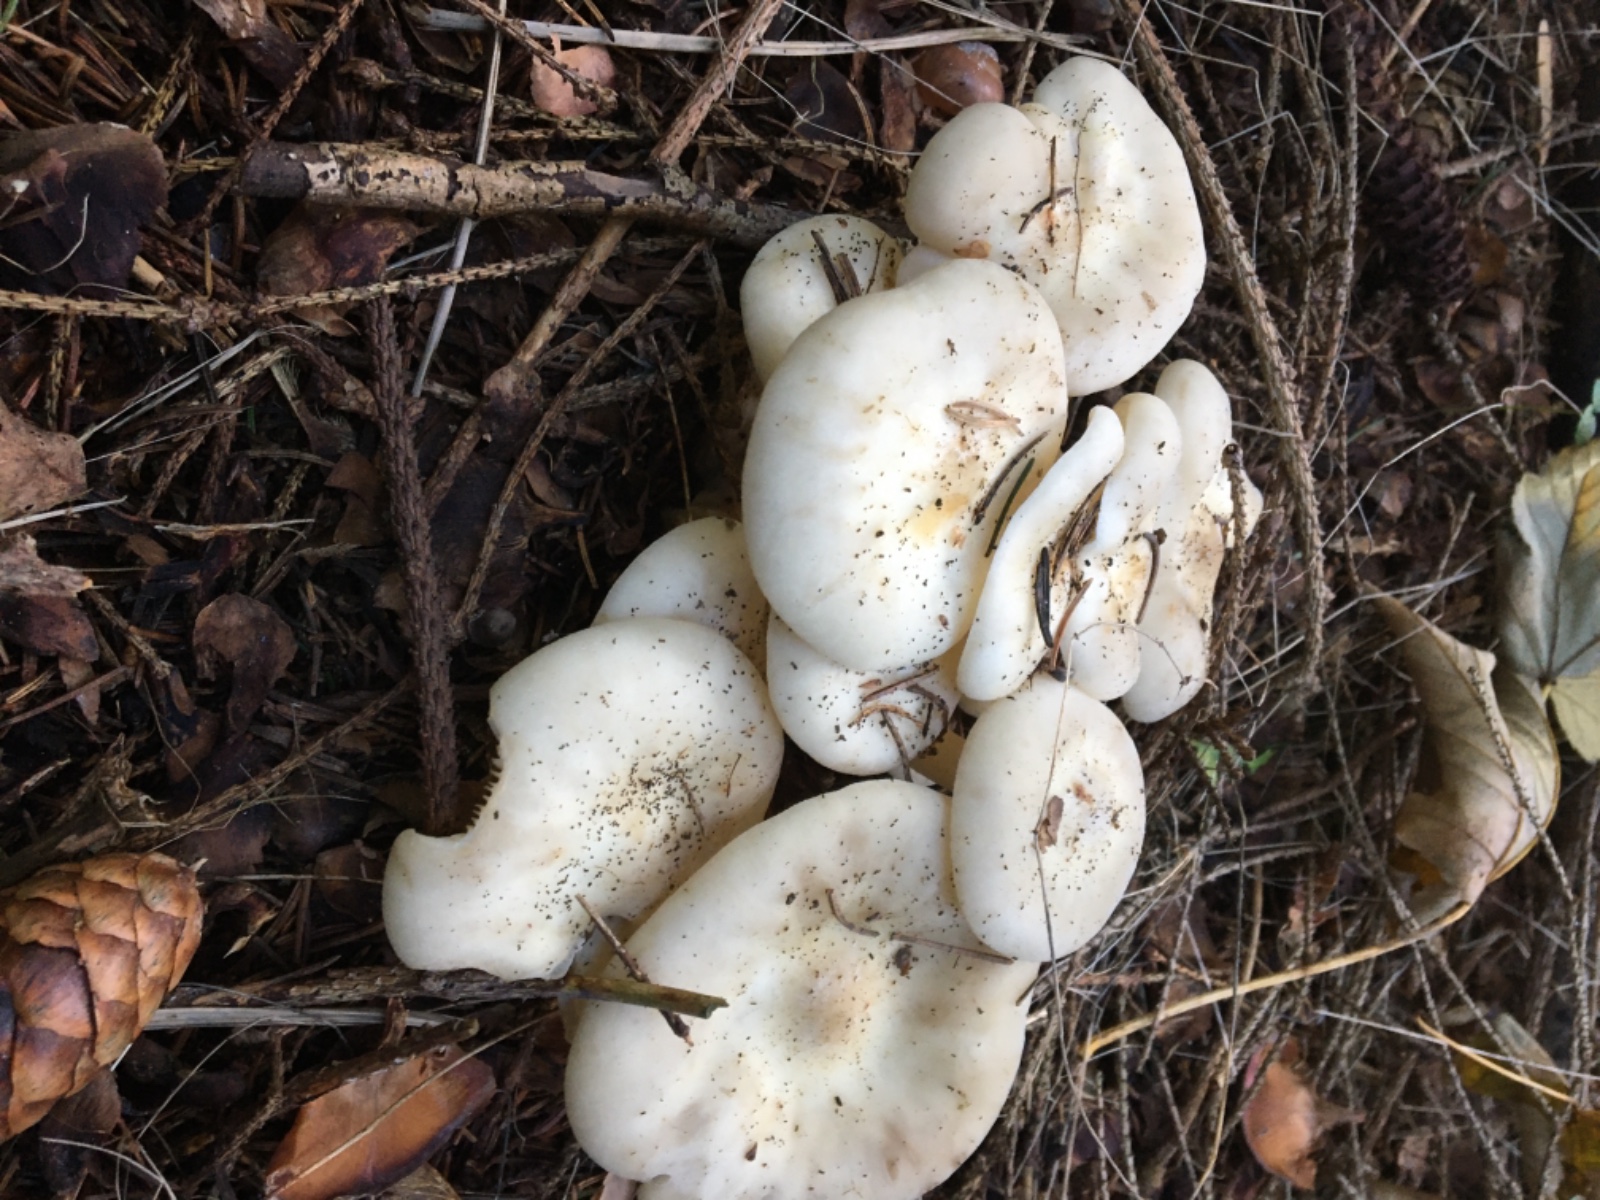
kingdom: Fungi
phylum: Basidiomycota
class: Agaricomycetes
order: Agaricales
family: Tricholomataceae
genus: Leucocybe
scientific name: Leucocybe connata
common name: knippe-tragthat
